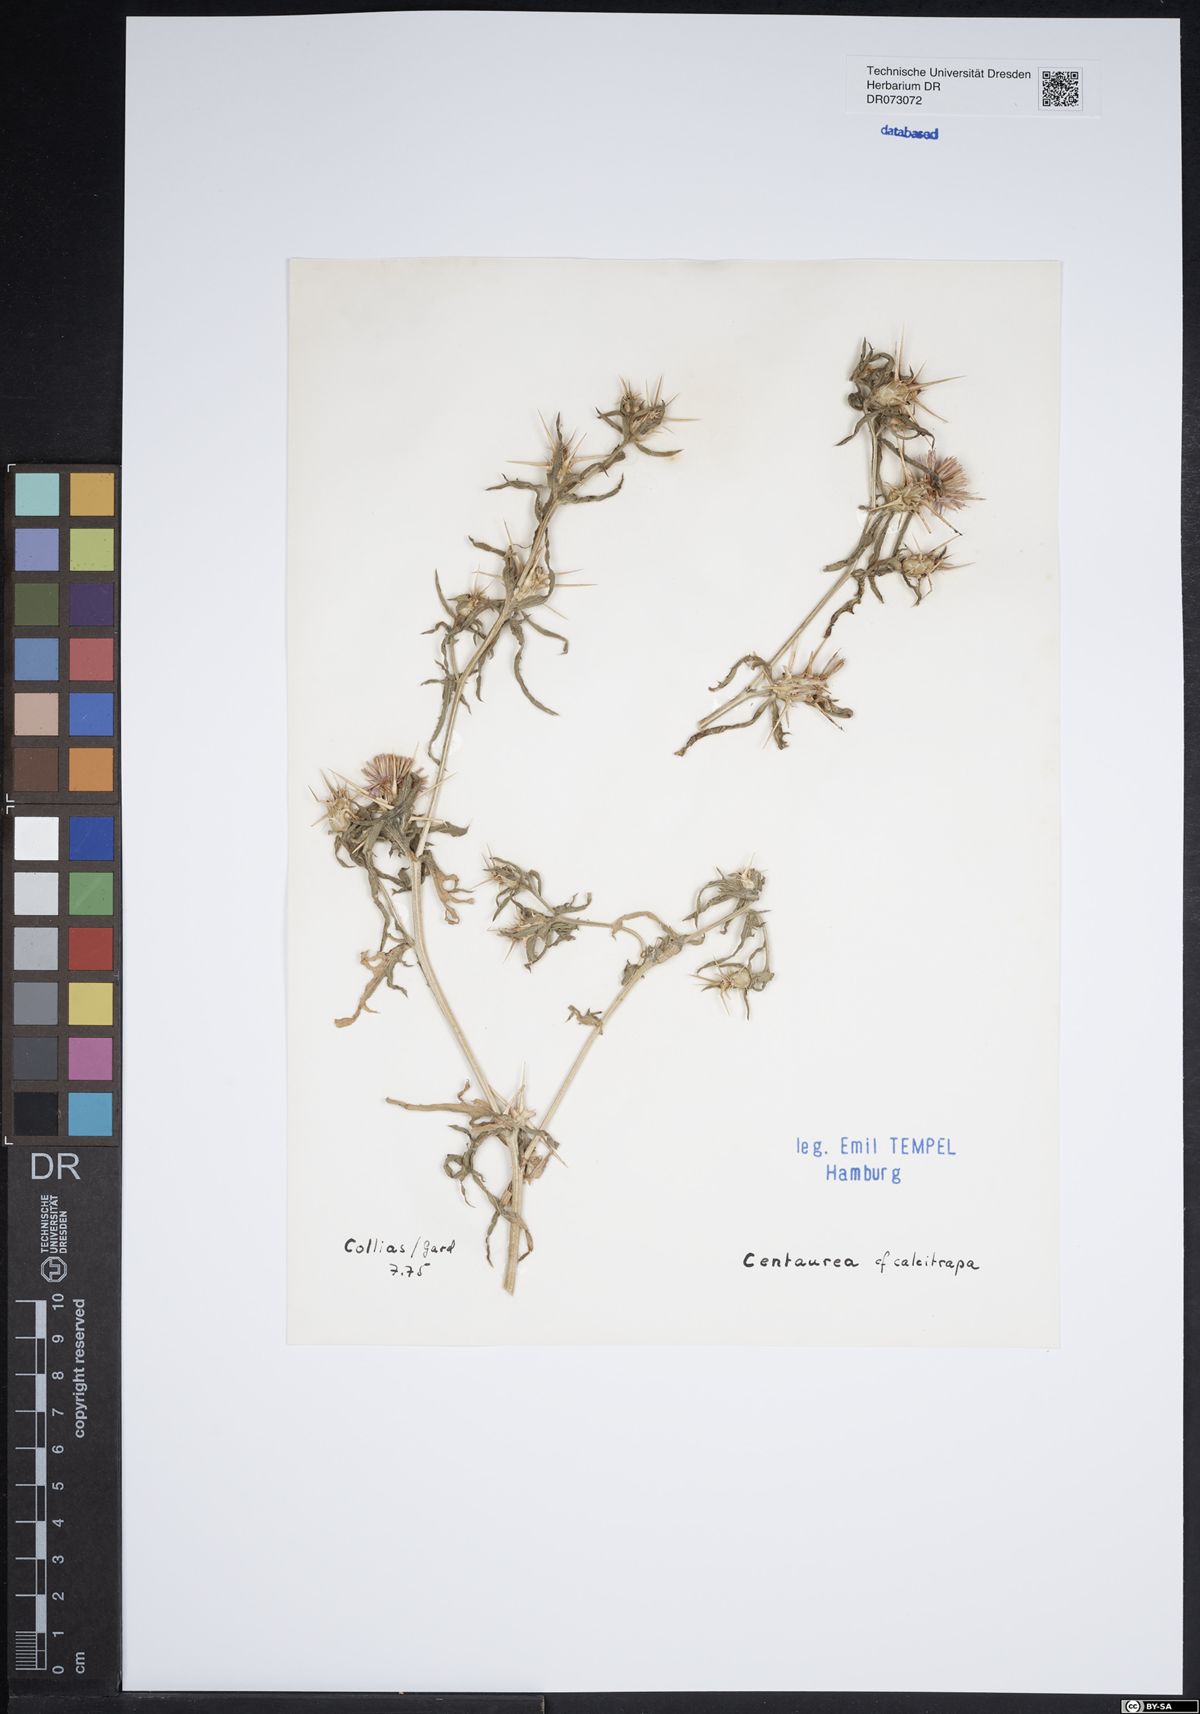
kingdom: Plantae
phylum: Tracheophyta
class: Magnoliopsida
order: Asterales
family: Asteraceae
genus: Centaurea
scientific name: Centaurea solstitialis
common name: Yellow star-thistle
